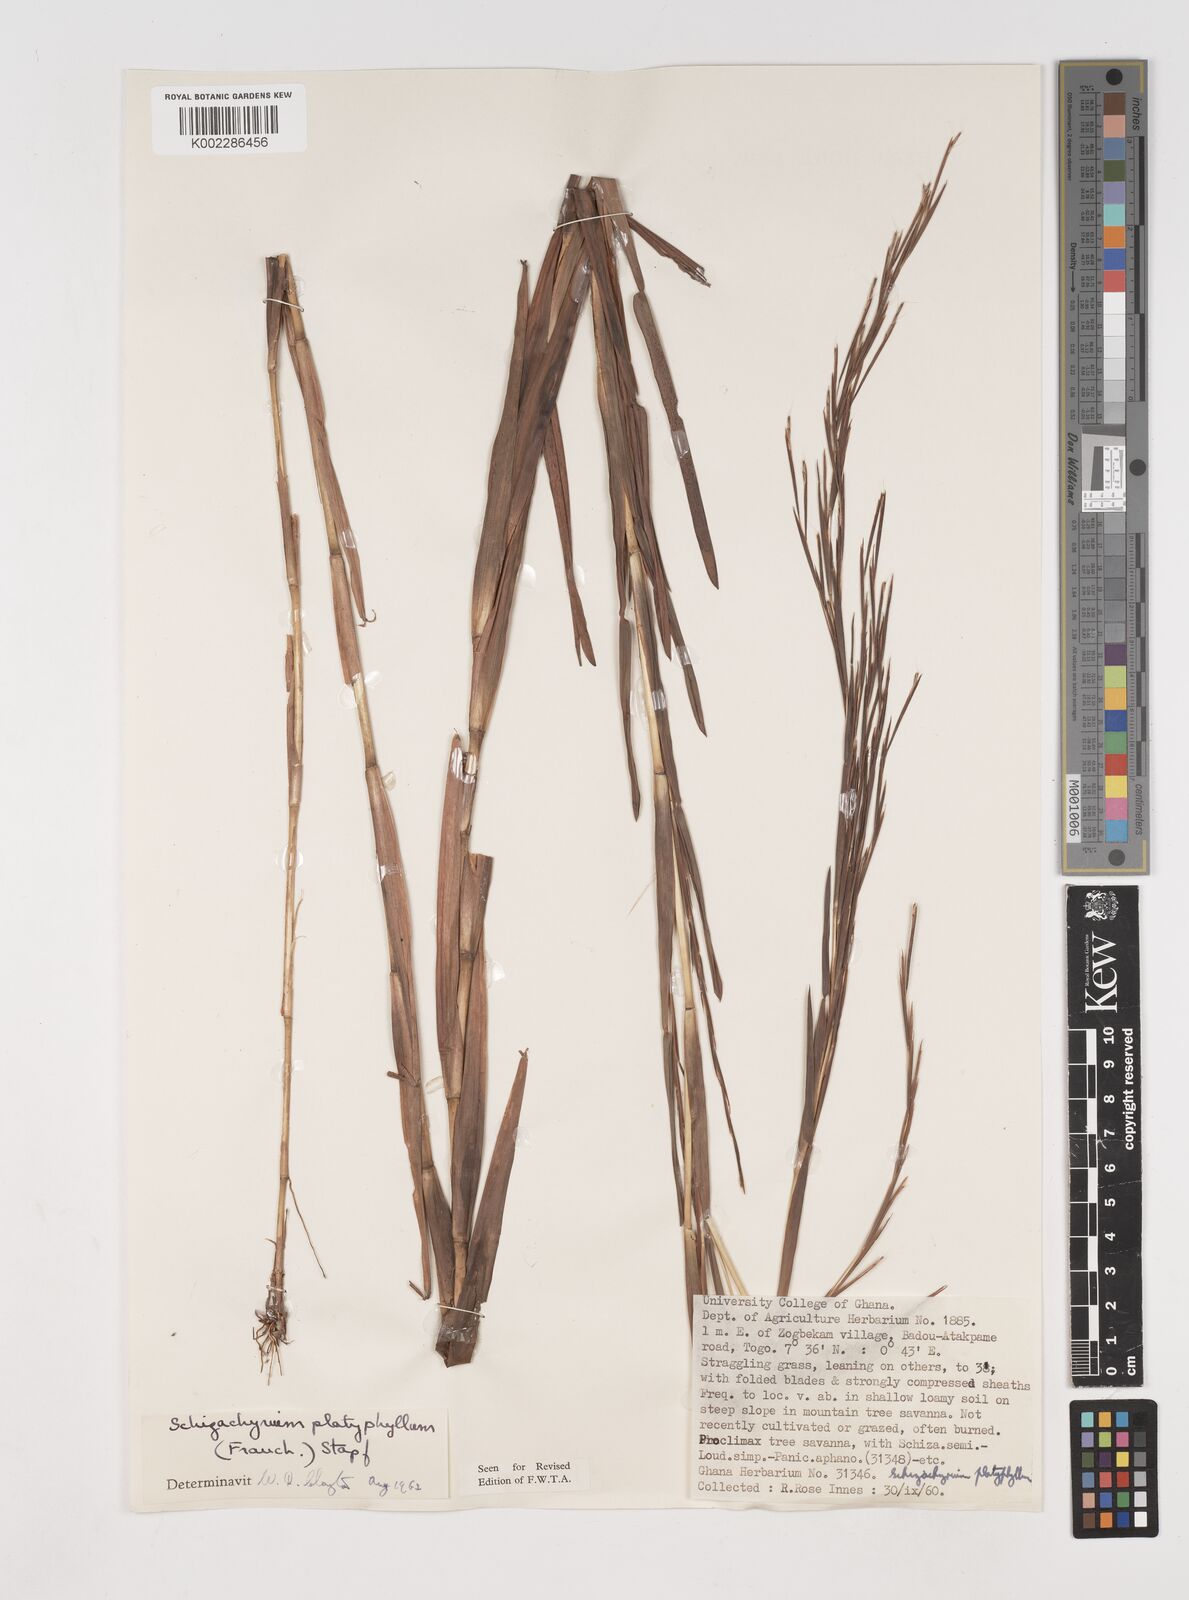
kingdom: Plantae
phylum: Tracheophyta
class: Liliopsida
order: Poales
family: Poaceae
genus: Schizachyrium
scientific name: Schizachyrium platyphyllum
